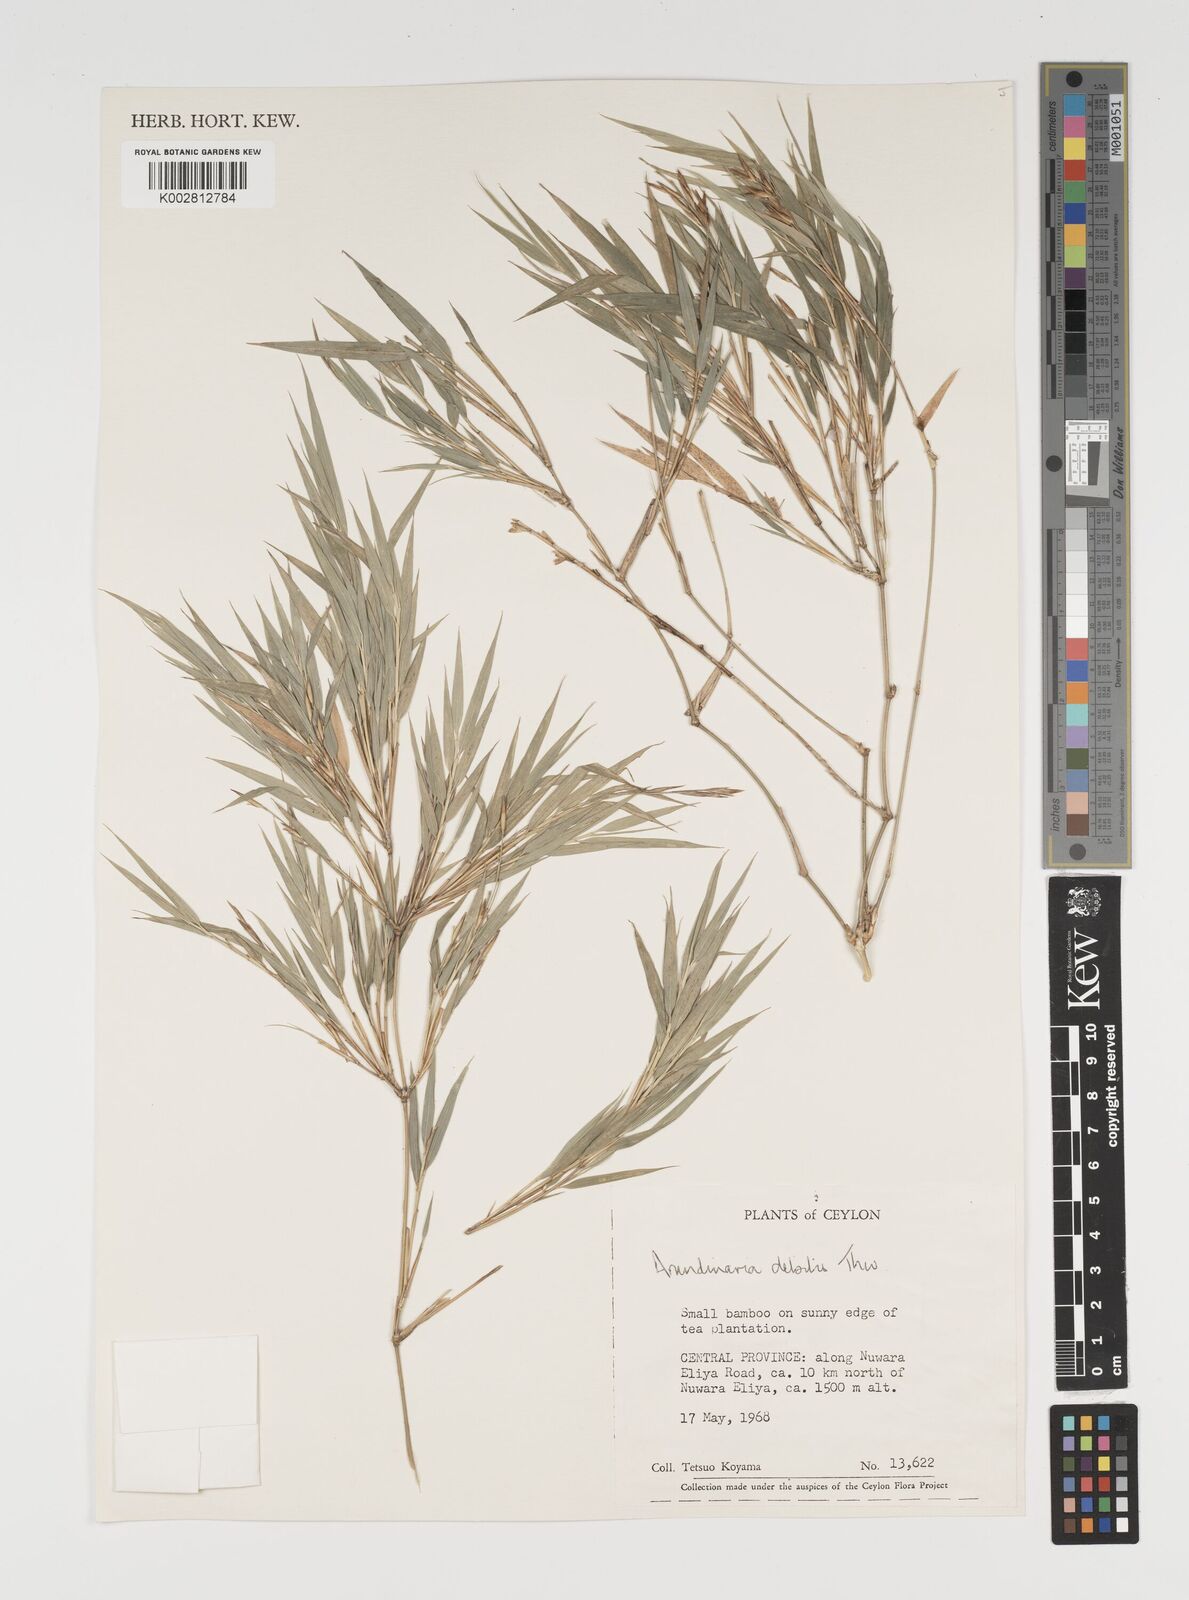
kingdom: Plantae
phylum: Tracheophyta
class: Liliopsida
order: Poales
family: Poaceae
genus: Kuruna
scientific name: Kuruna debilis
